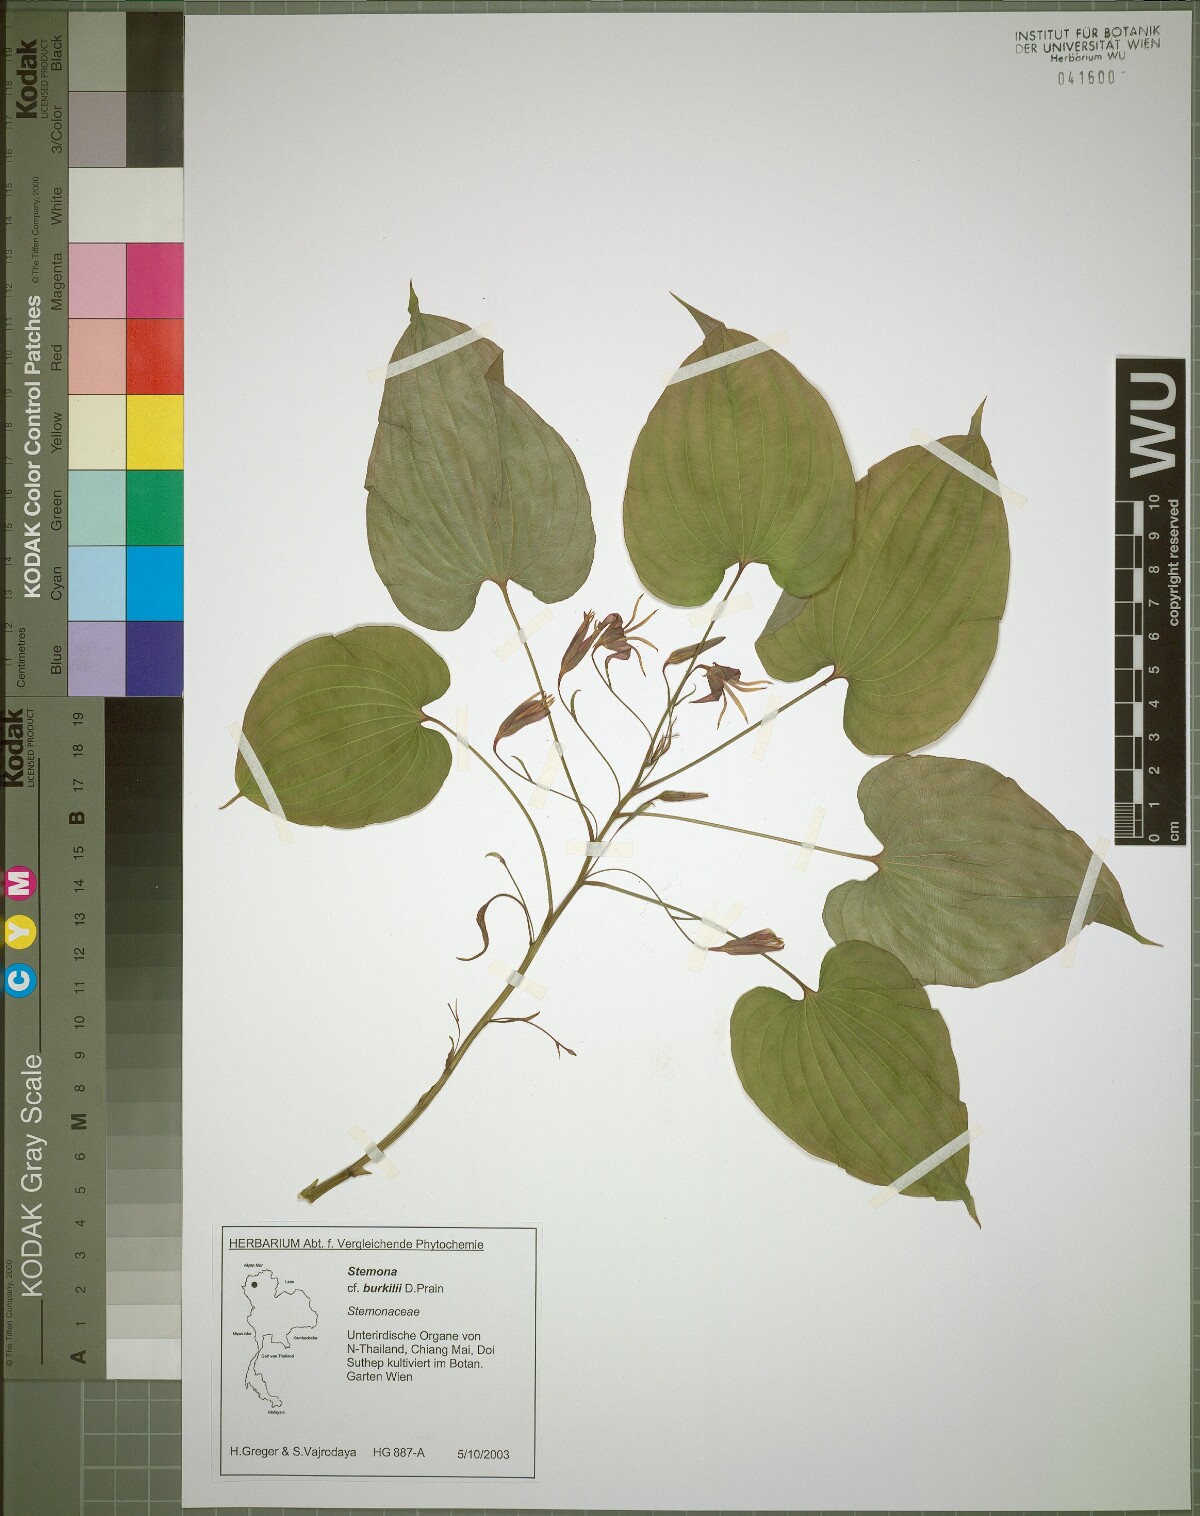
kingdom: Plantae
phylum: Tracheophyta
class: Liliopsida
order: Pandanales
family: Stemonaceae
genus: Stemona
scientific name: Stemona burkillii
